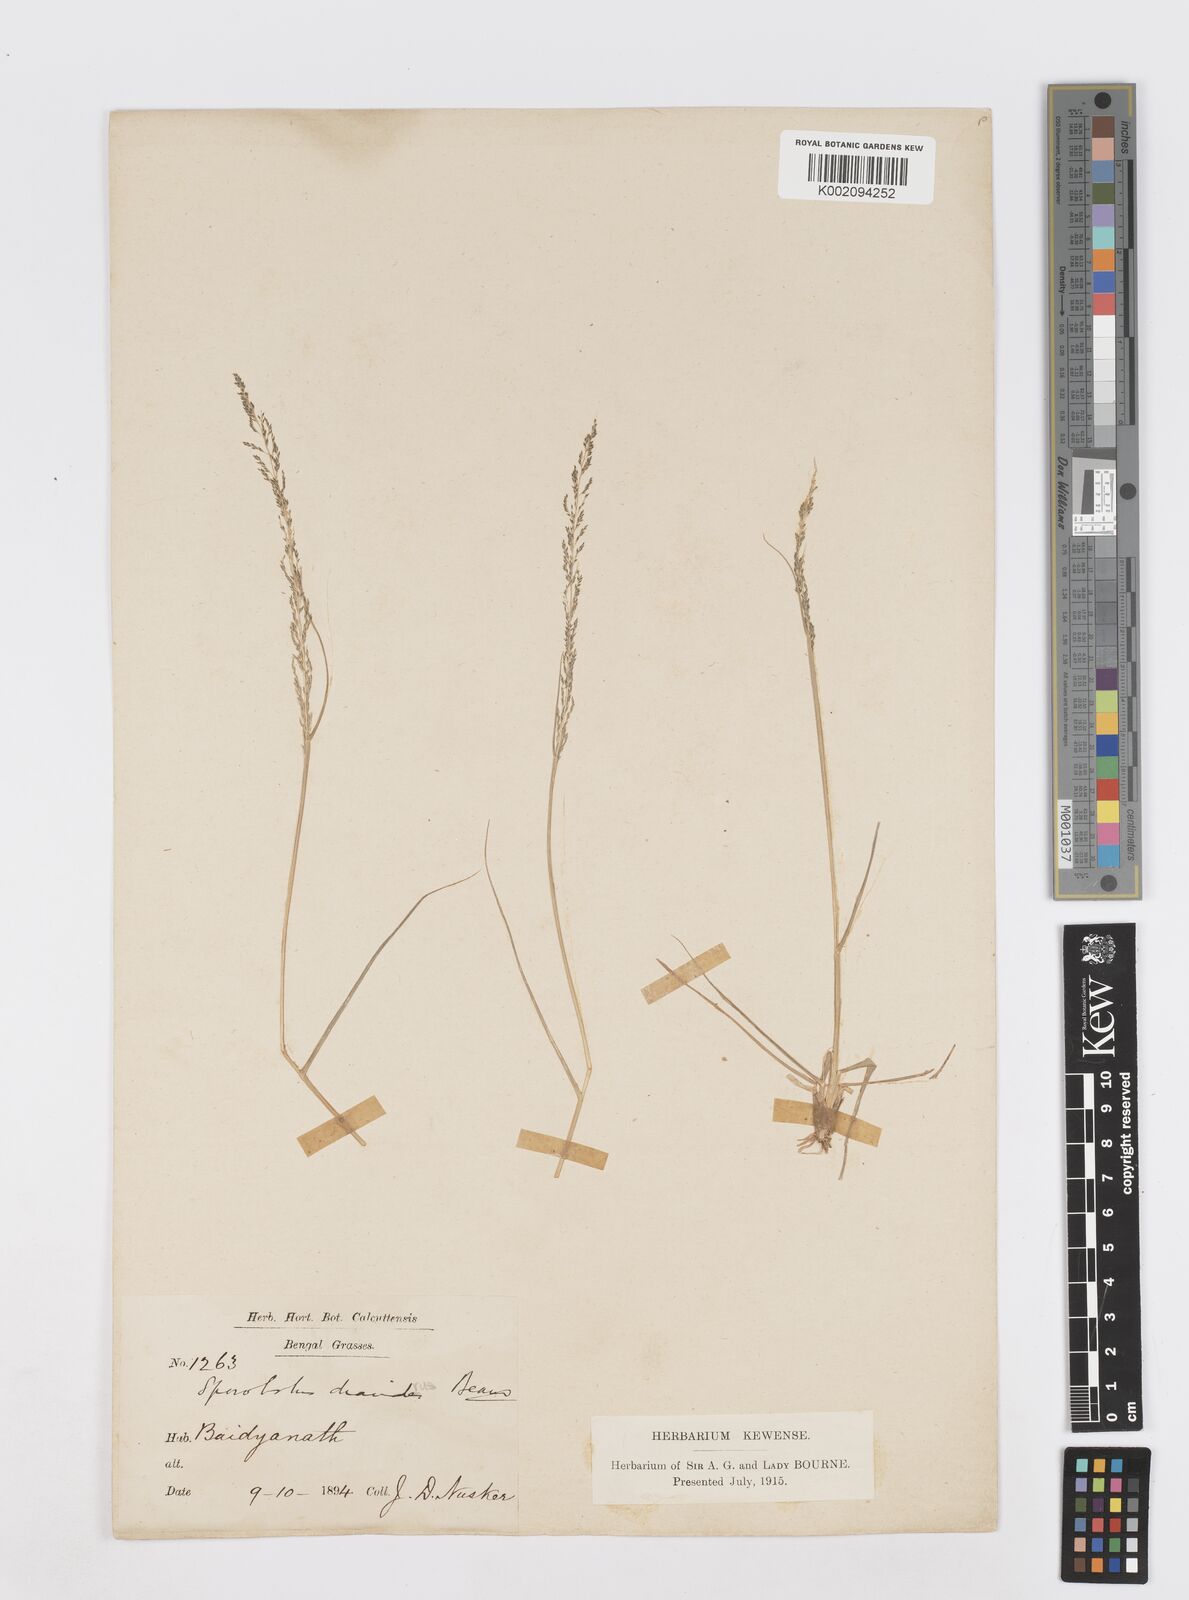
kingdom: Plantae
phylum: Tracheophyta
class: Liliopsida
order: Poales
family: Poaceae
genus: Sporobolus
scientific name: Sporobolus diandrus
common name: Tussock dropseed
